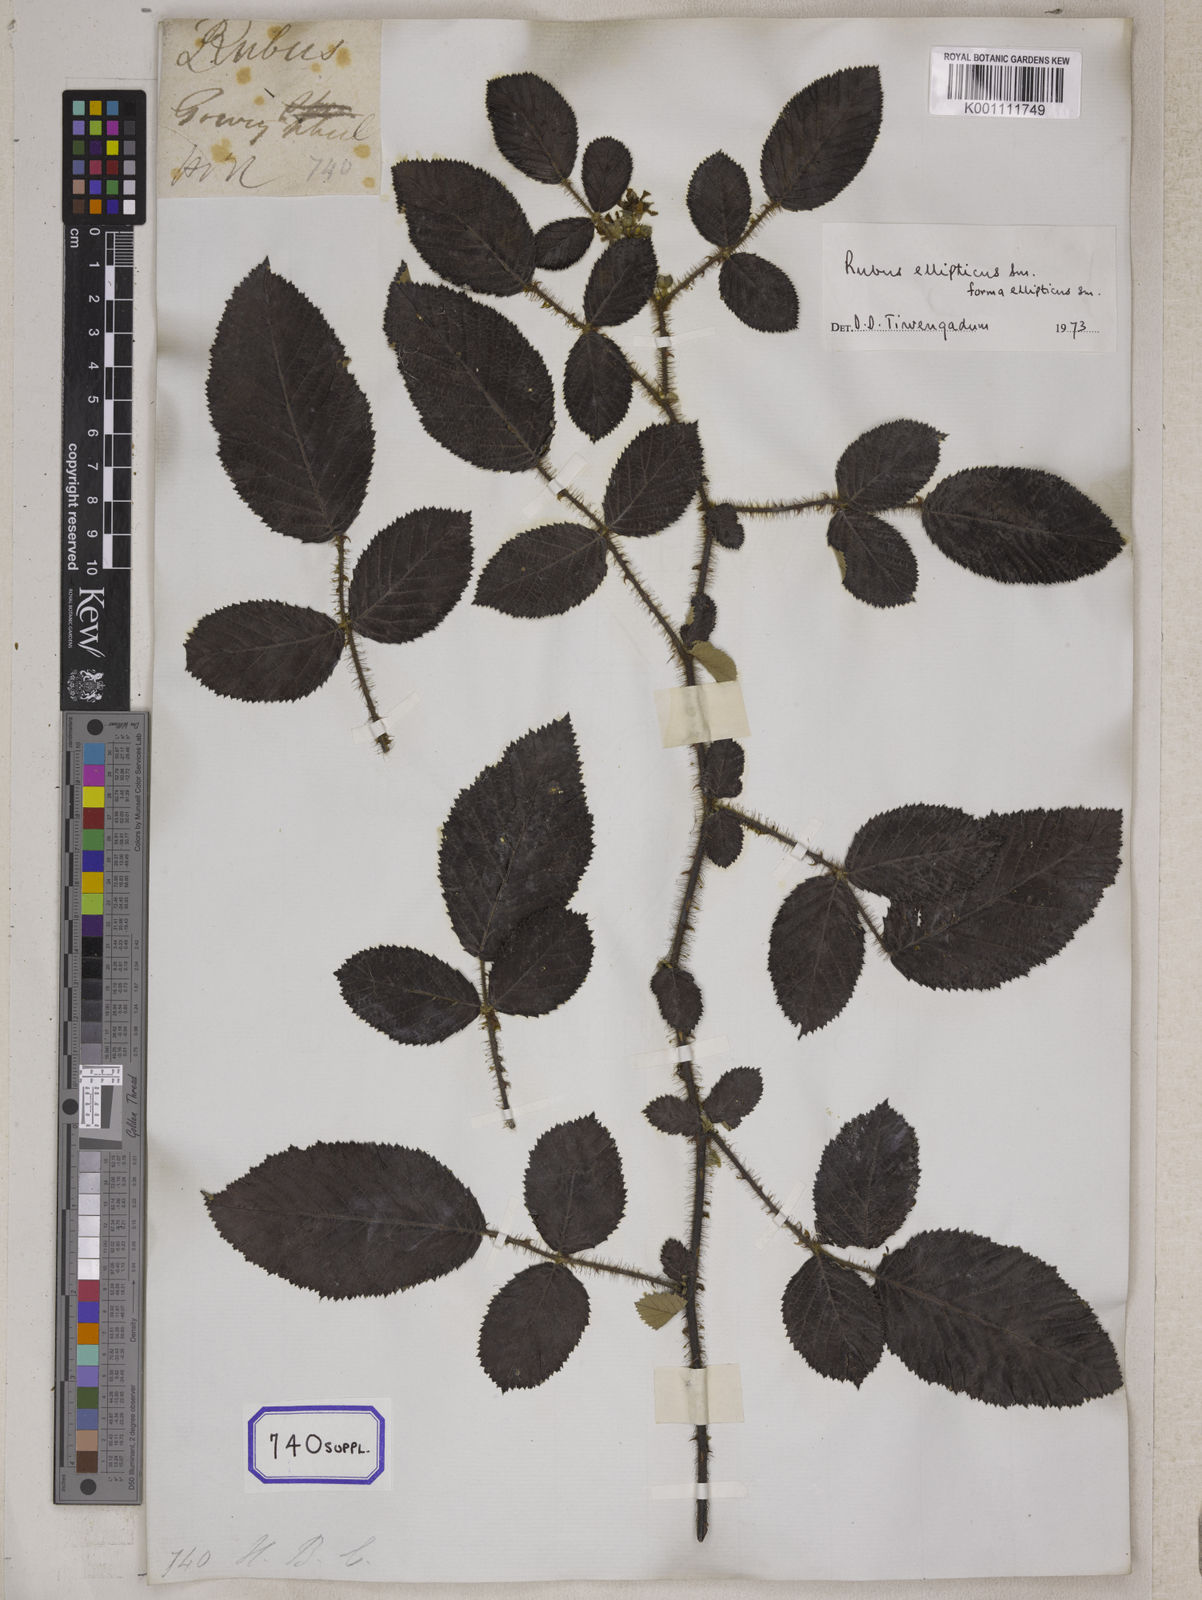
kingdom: Plantae
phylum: Tracheophyta
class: Magnoliopsida
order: Rosales
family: Rosaceae
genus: Rubus
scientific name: Rubus ellipticus
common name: Cheeseberry
